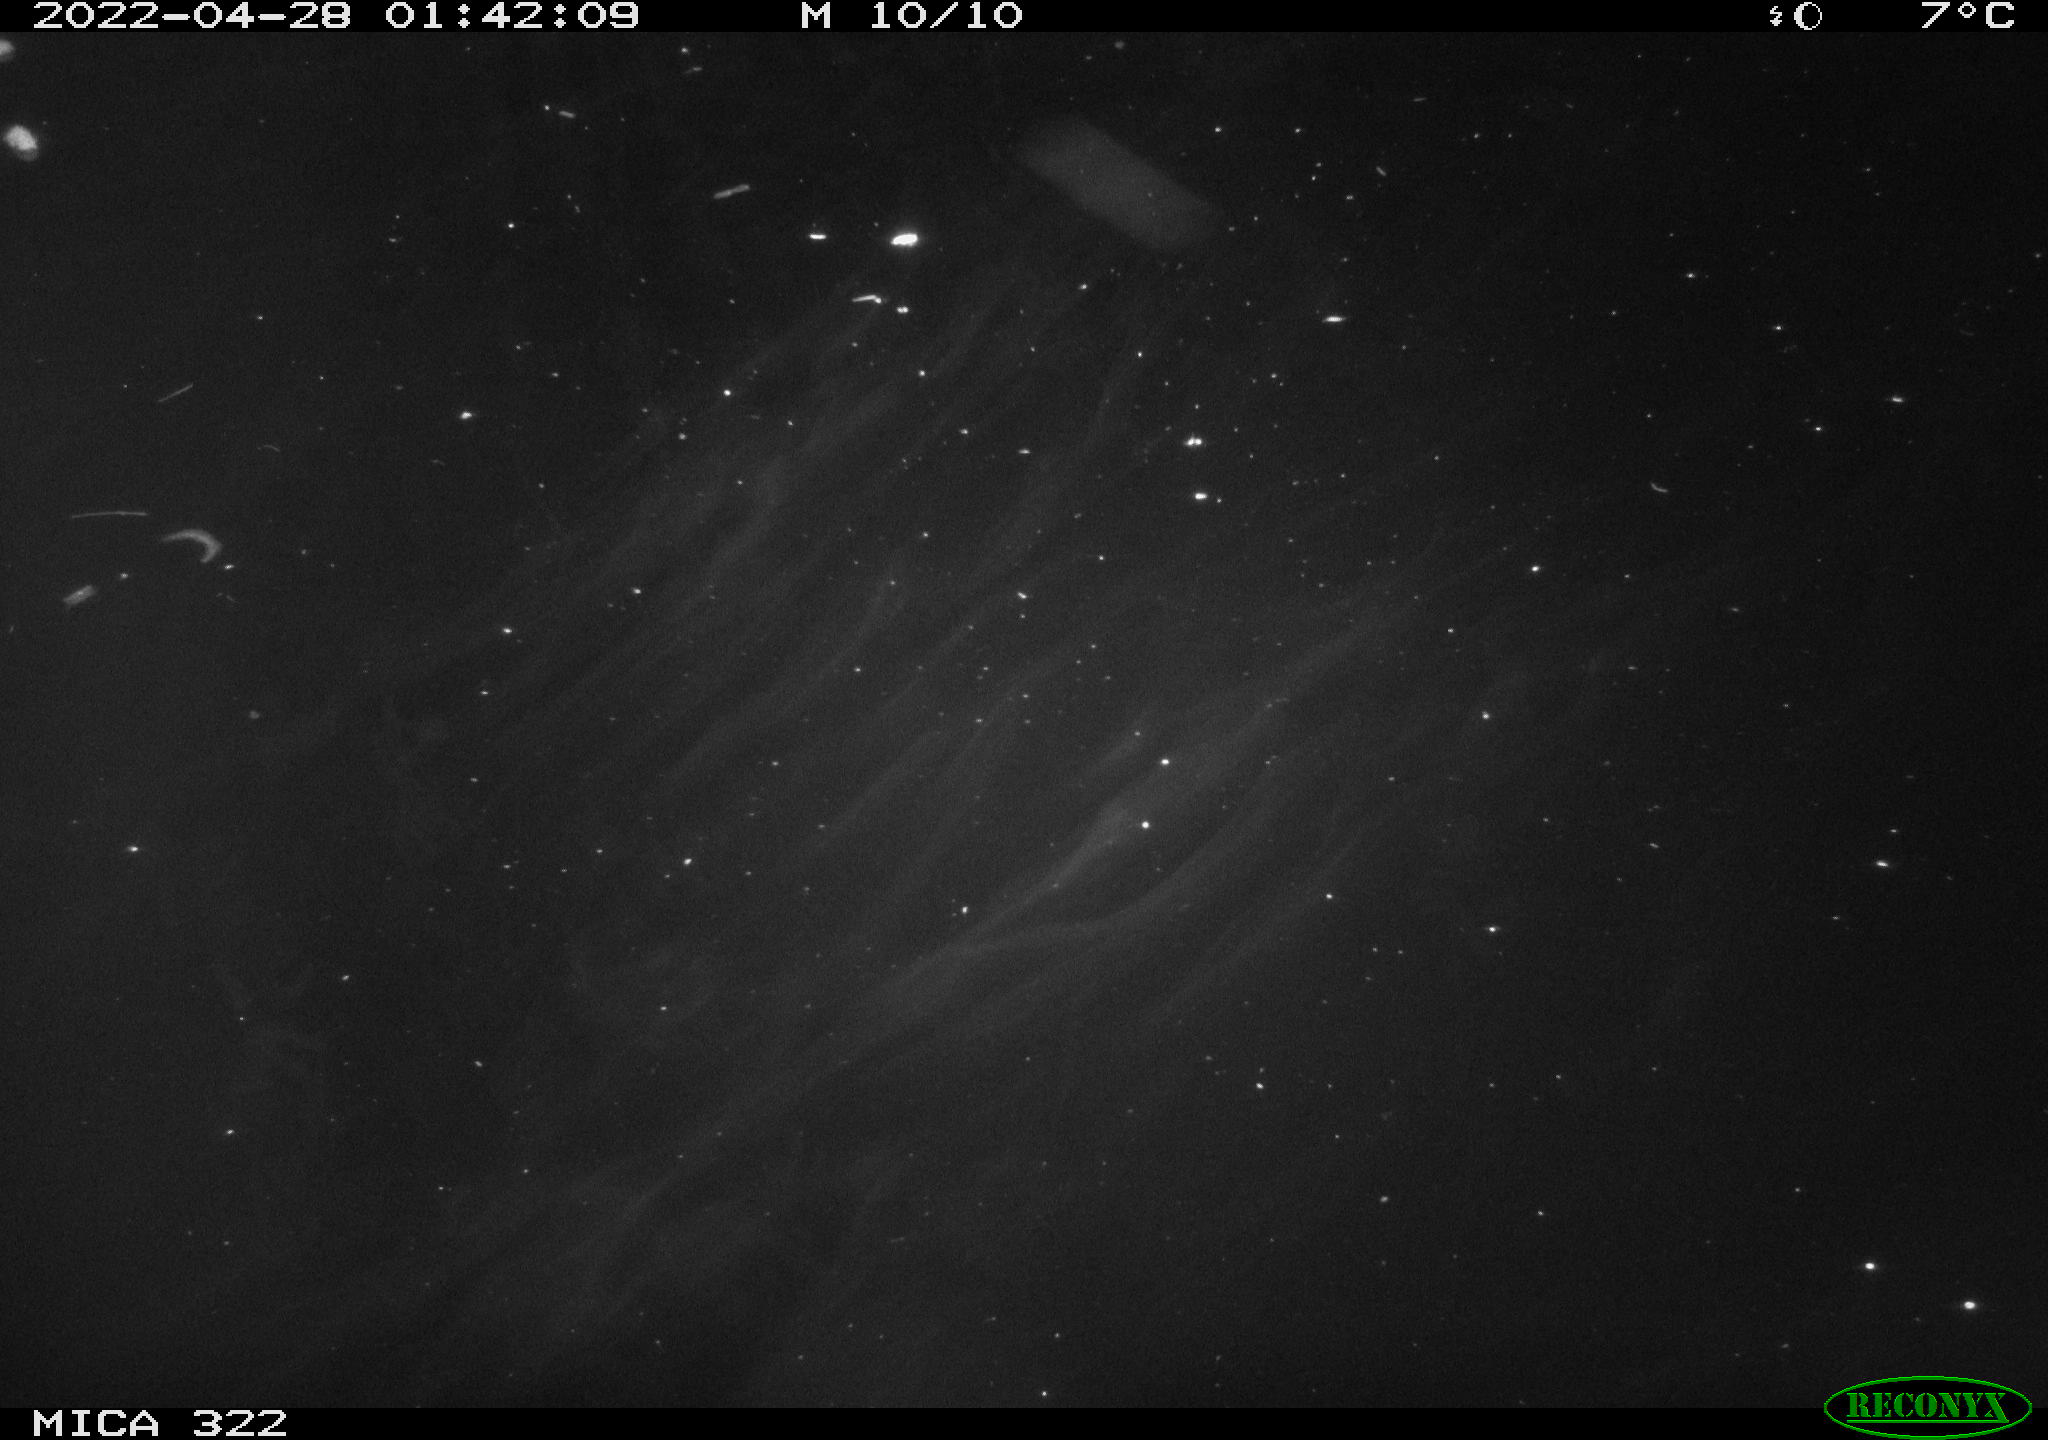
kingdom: Animalia
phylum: Chordata
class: Mammalia
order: Rodentia
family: Muridae
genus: Rattus
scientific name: Rattus norvegicus
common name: Brown rat
